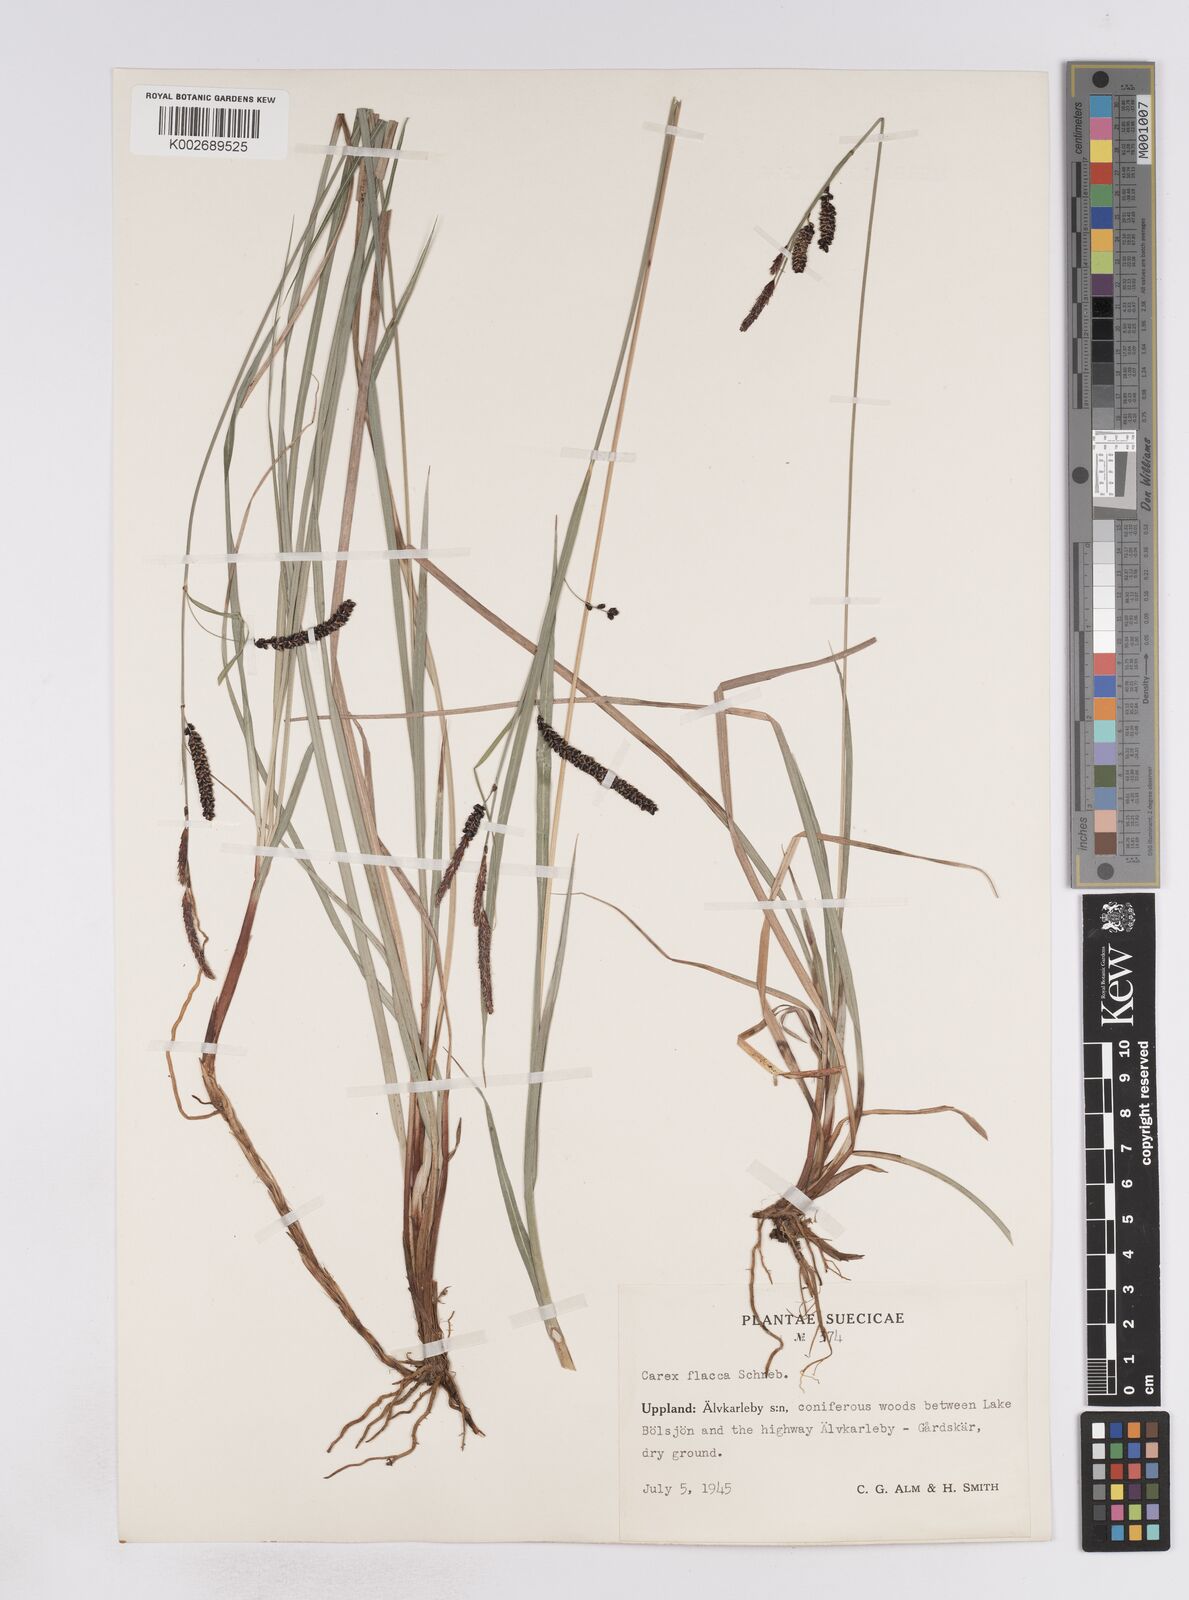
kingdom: Plantae
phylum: Tracheophyta
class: Liliopsida
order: Poales
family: Cyperaceae
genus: Carex
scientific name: Carex flacca
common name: Glaucous sedge
